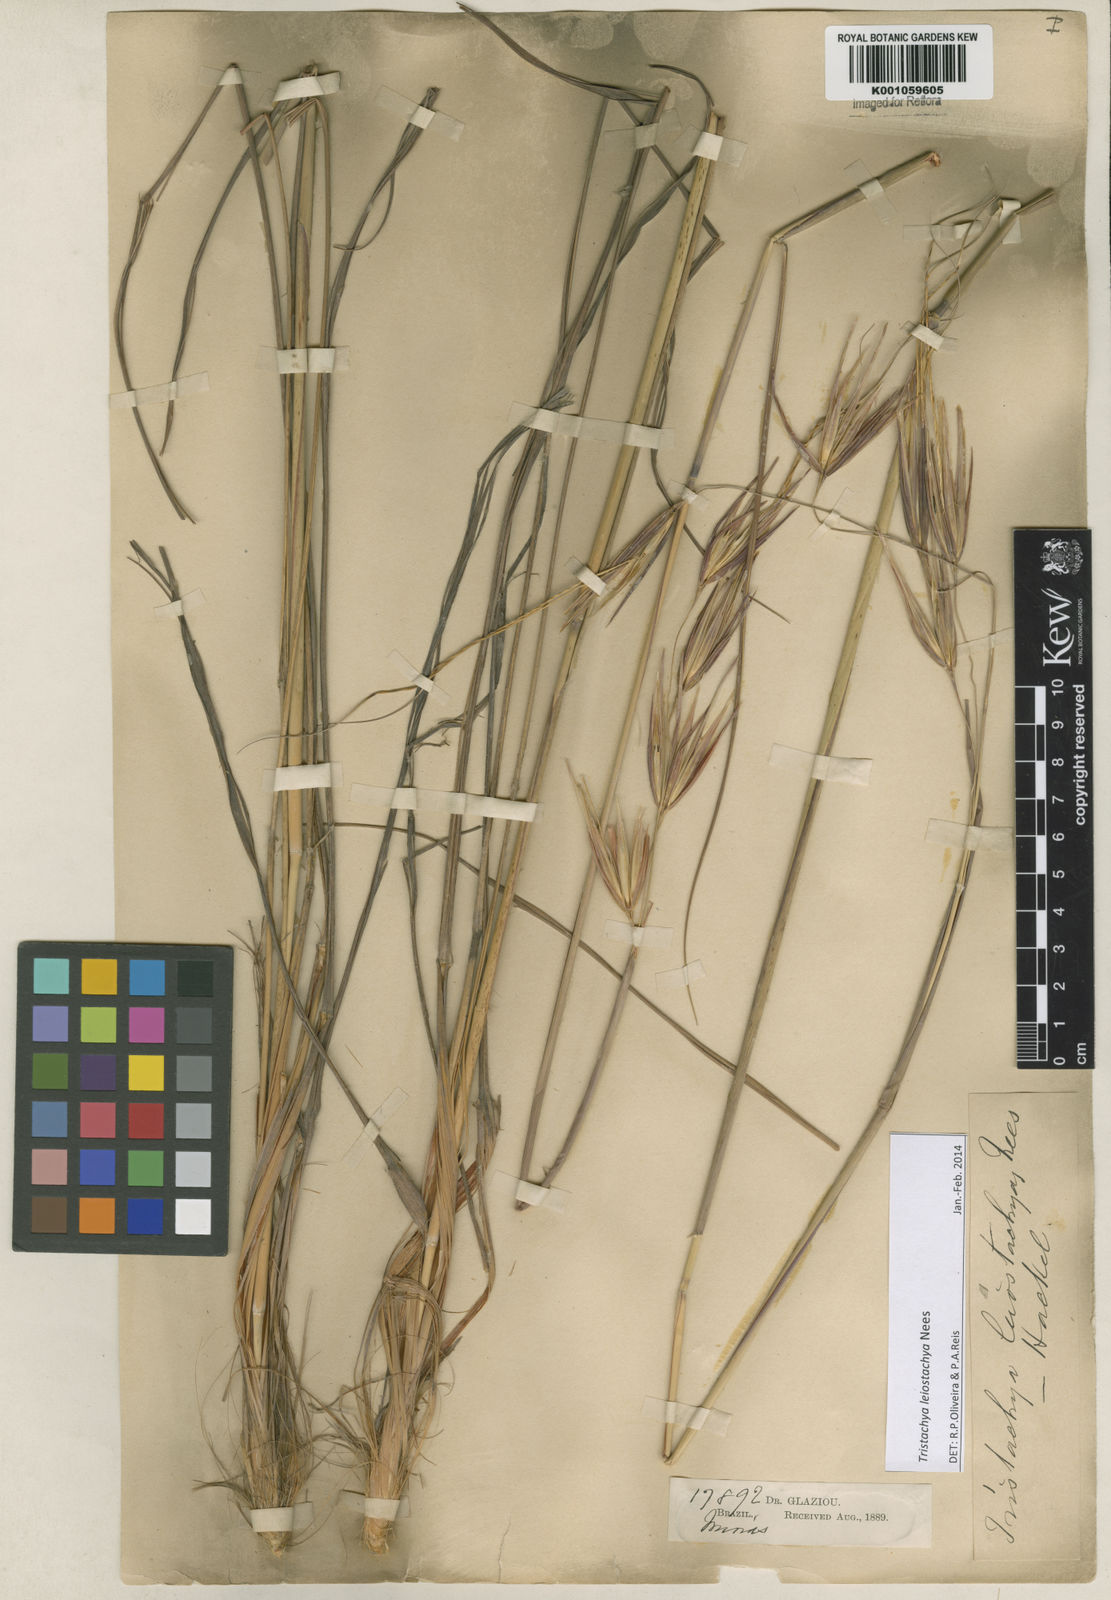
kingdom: Plantae
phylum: Tracheophyta
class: Liliopsida
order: Poales
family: Poaceae
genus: Tristachya
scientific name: Tristachya leiostachya
